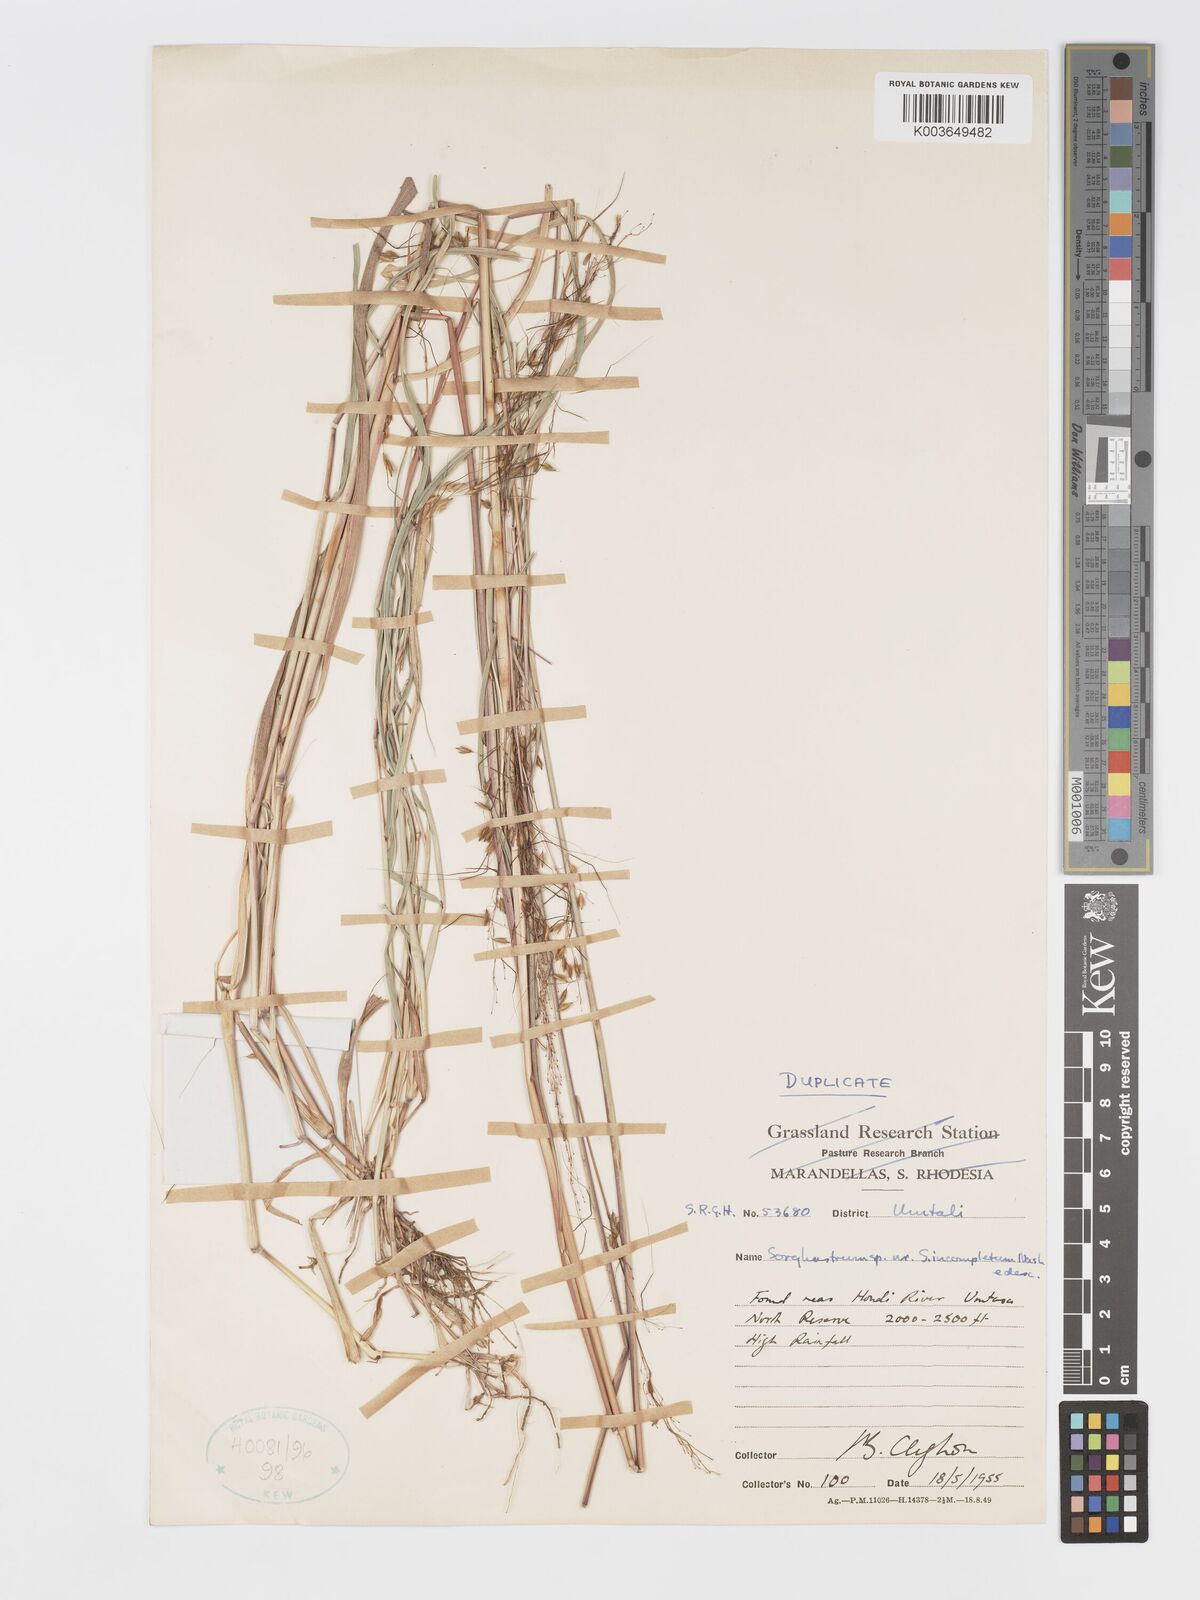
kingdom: Plantae
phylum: Tracheophyta
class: Liliopsida
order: Poales
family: Poaceae
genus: Sorghastrum
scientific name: Sorghastrum incompletum
